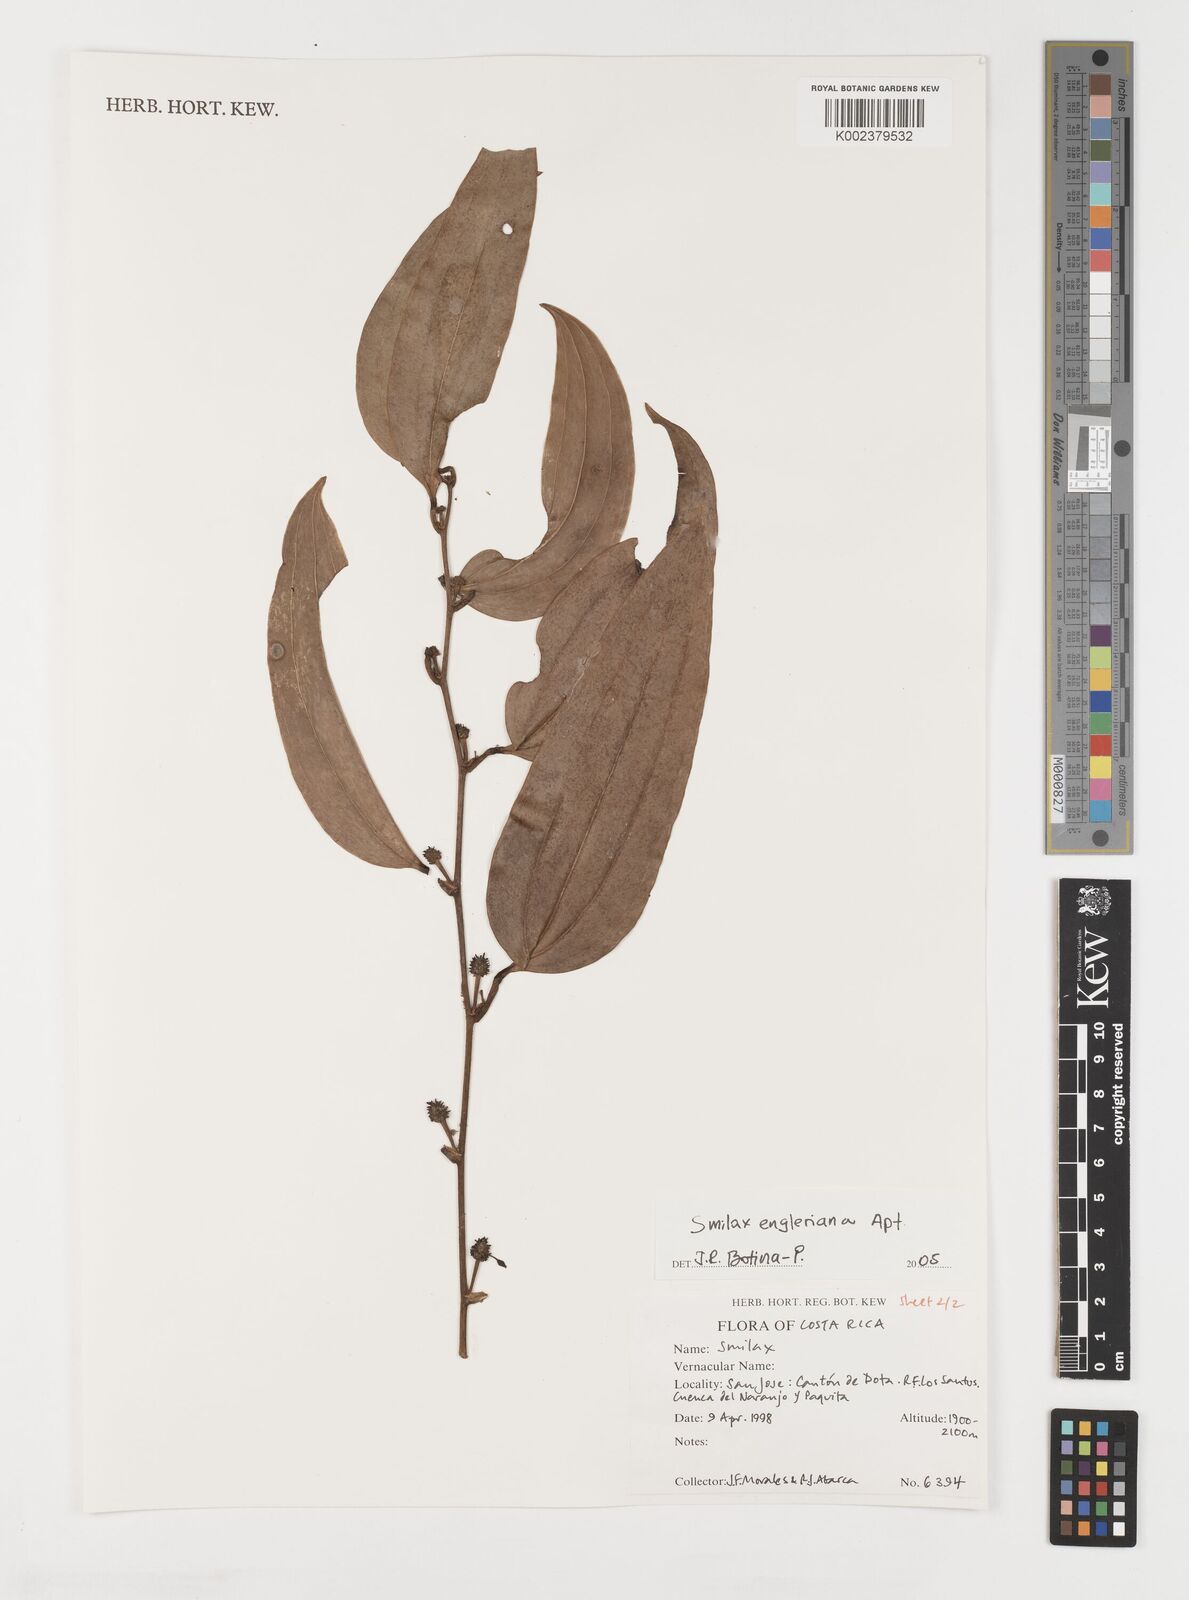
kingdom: Plantae
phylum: Tracheophyta
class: Liliopsida
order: Liliales
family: Smilacaceae
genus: Smilax
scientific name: Smilax domingensis
